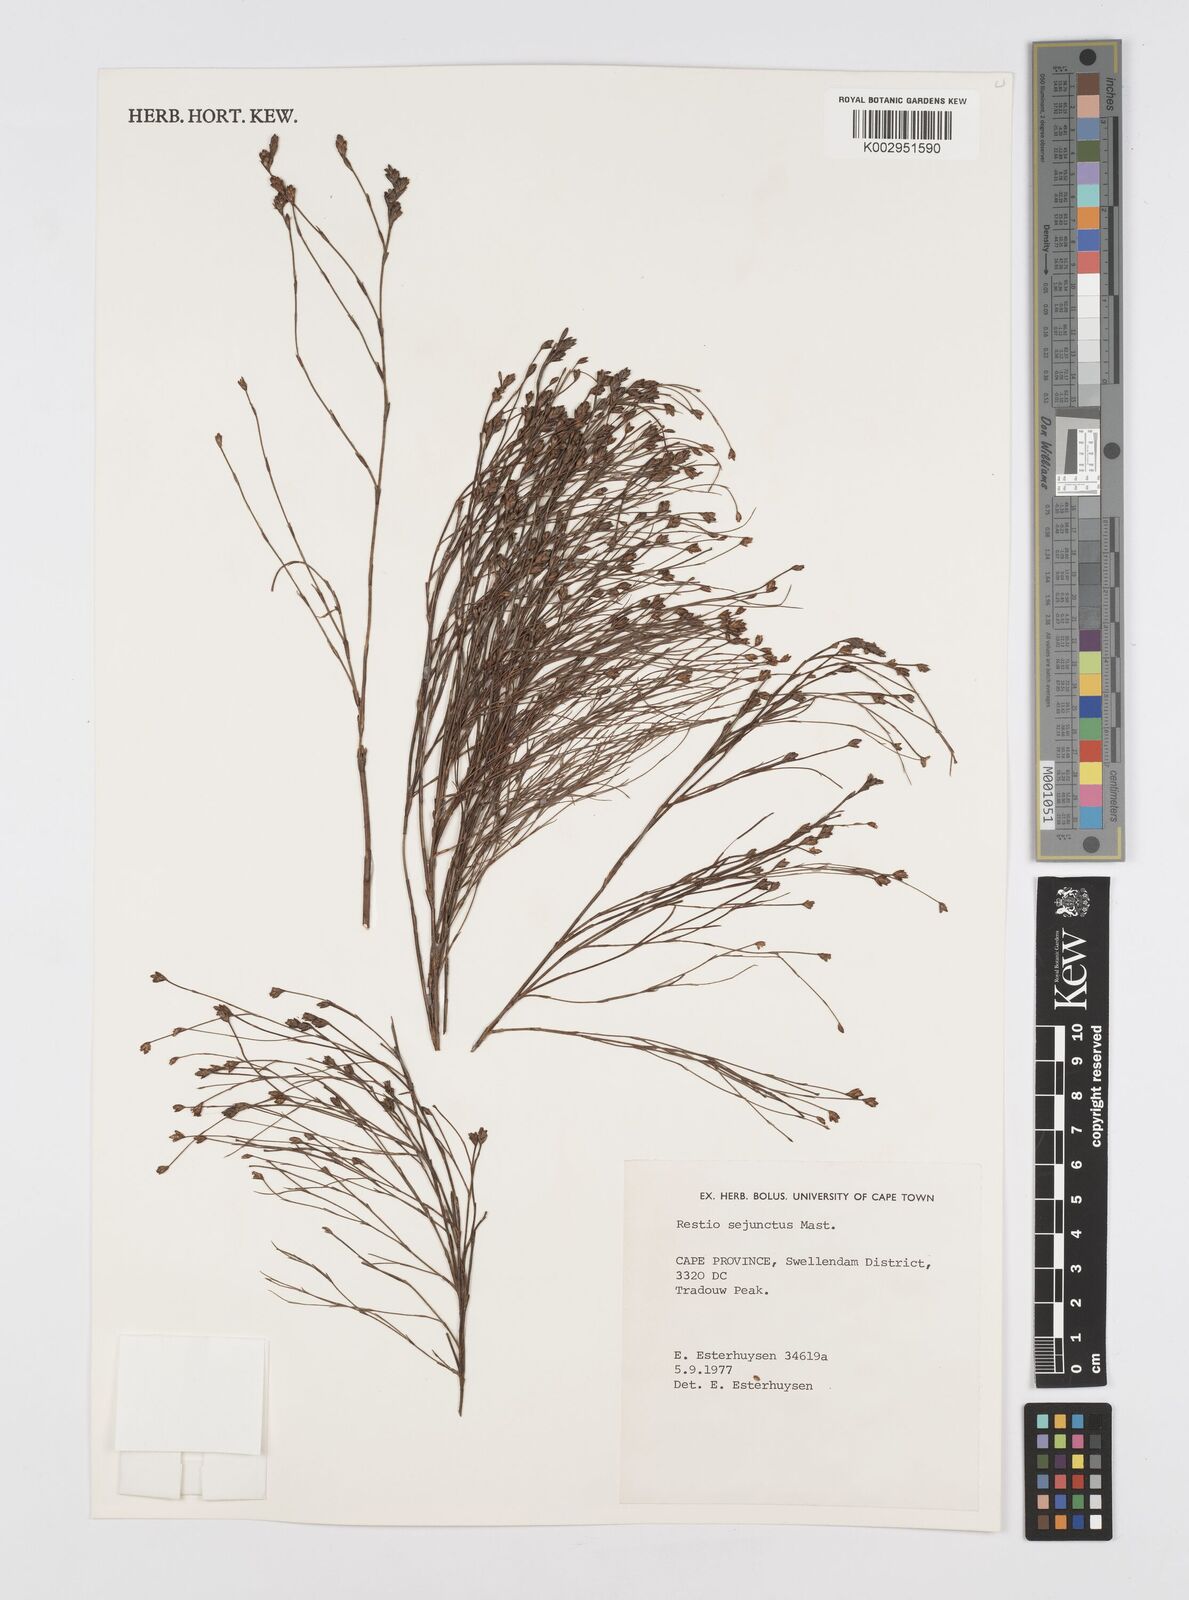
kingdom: Plantae
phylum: Tracheophyta
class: Liliopsida
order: Poales
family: Restionaceae
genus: Restio
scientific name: Restio sejunctus
